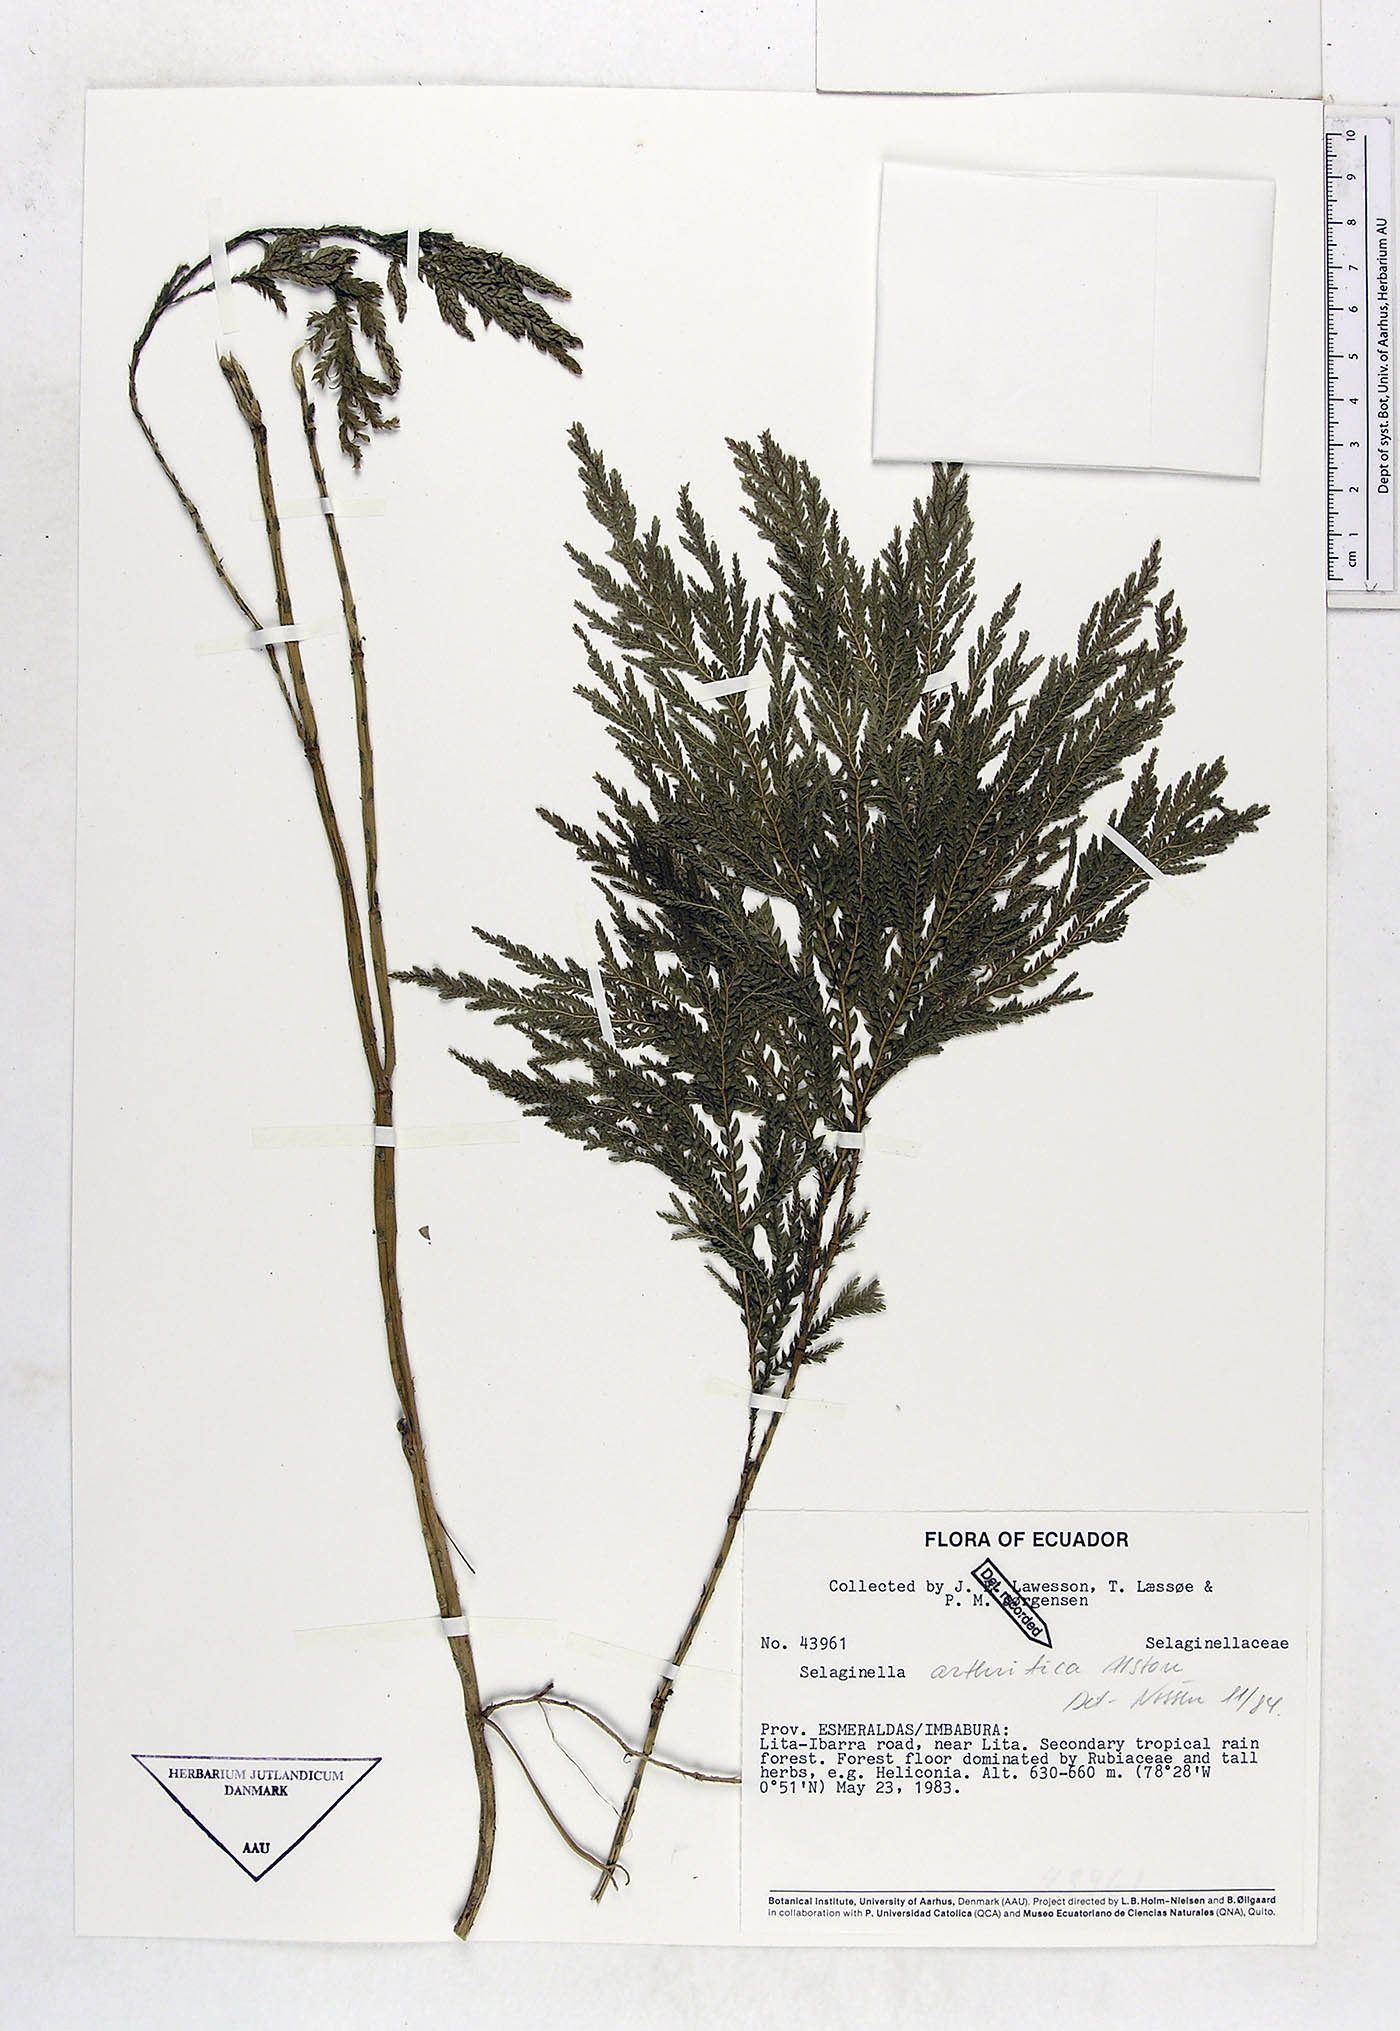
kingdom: Plantae
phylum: Tracheophyta
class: Lycopodiopsida
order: Selaginellales
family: Selaginellaceae
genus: Selaginella
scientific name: Selaginella arthritica
